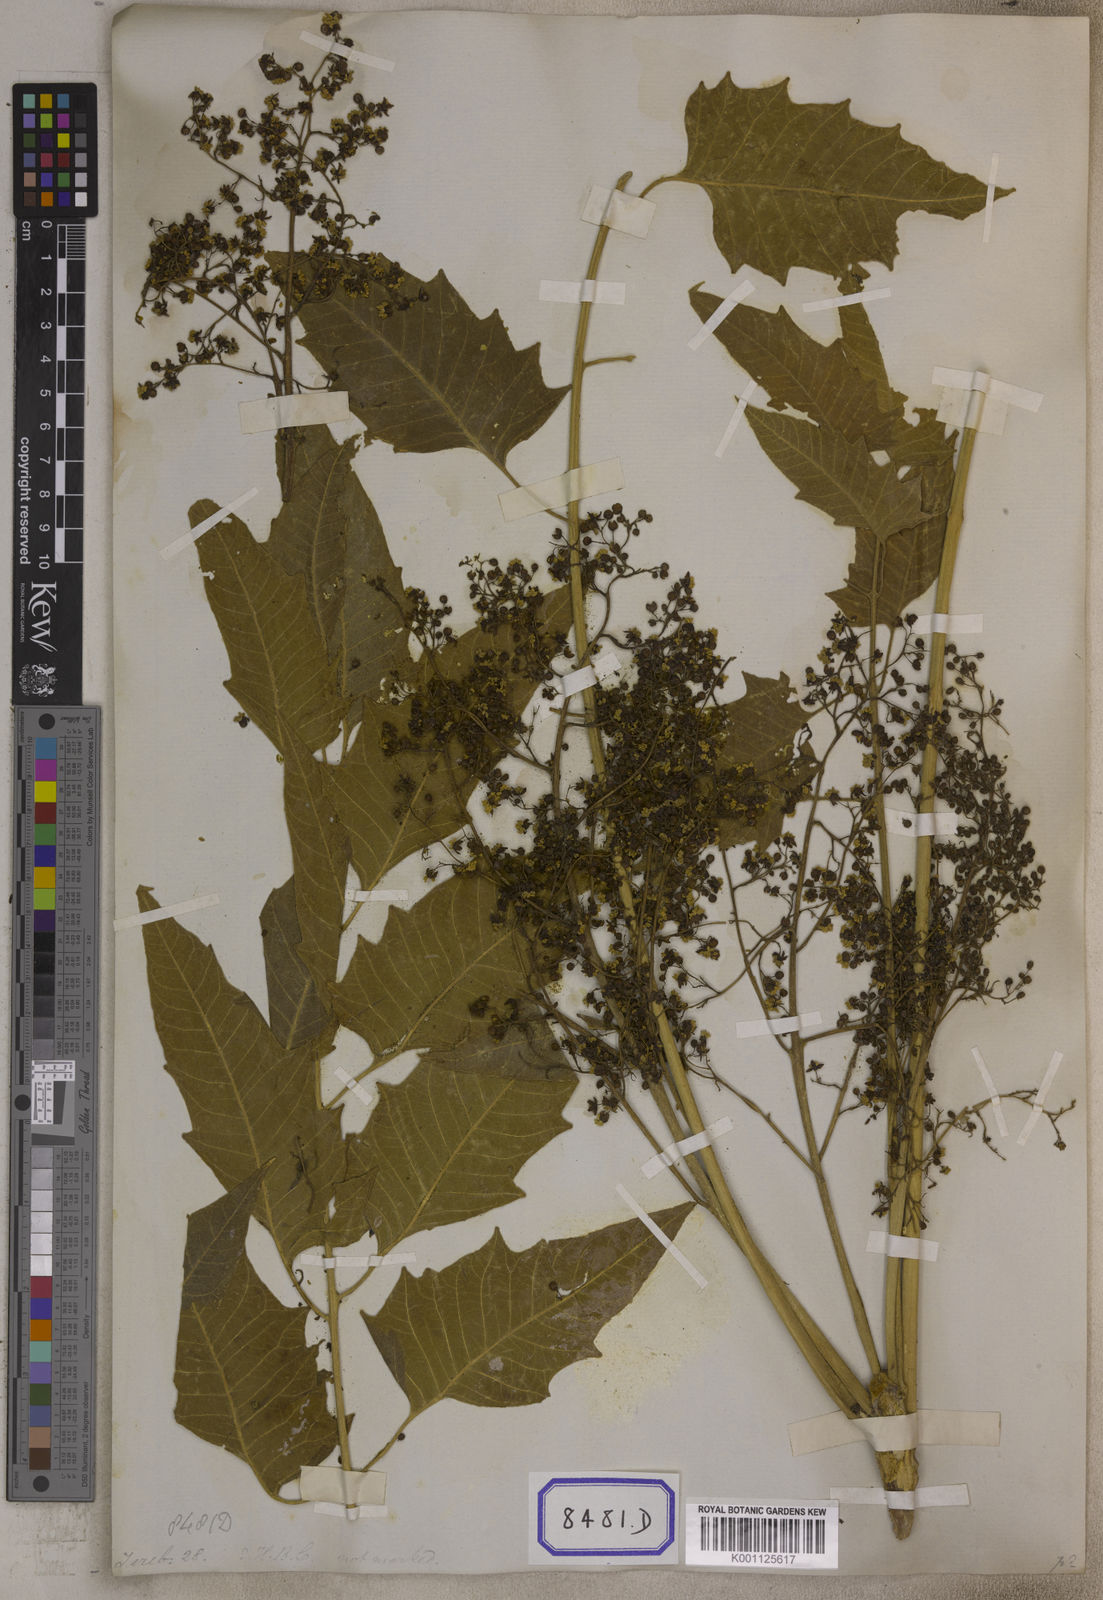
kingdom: Plantae
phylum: Tracheophyta
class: Magnoliopsida
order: Sapindales
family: Simaroubaceae
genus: Ailanthus
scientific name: Ailanthus excelsa
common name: Indian tree-of-heaven
